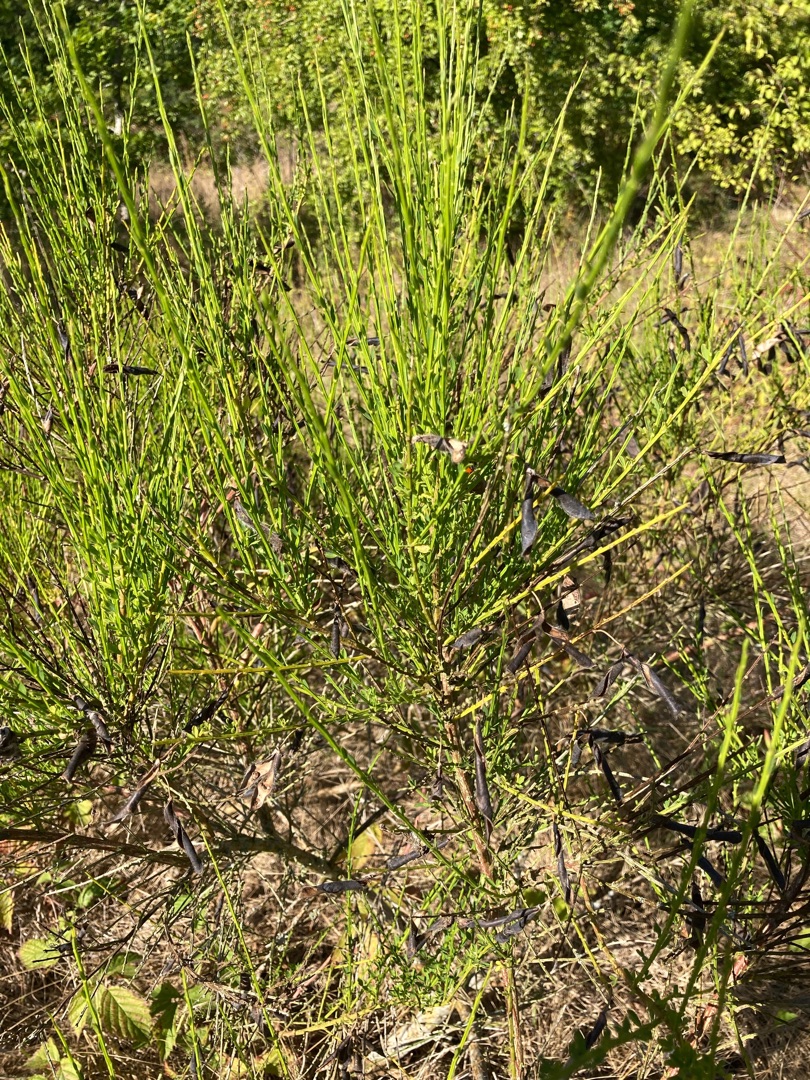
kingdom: Plantae
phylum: Tracheophyta
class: Magnoliopsida
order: Fabales
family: Fabaceae
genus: Cytisus
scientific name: Cytisus scoparius
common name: Almindelig gyvel
